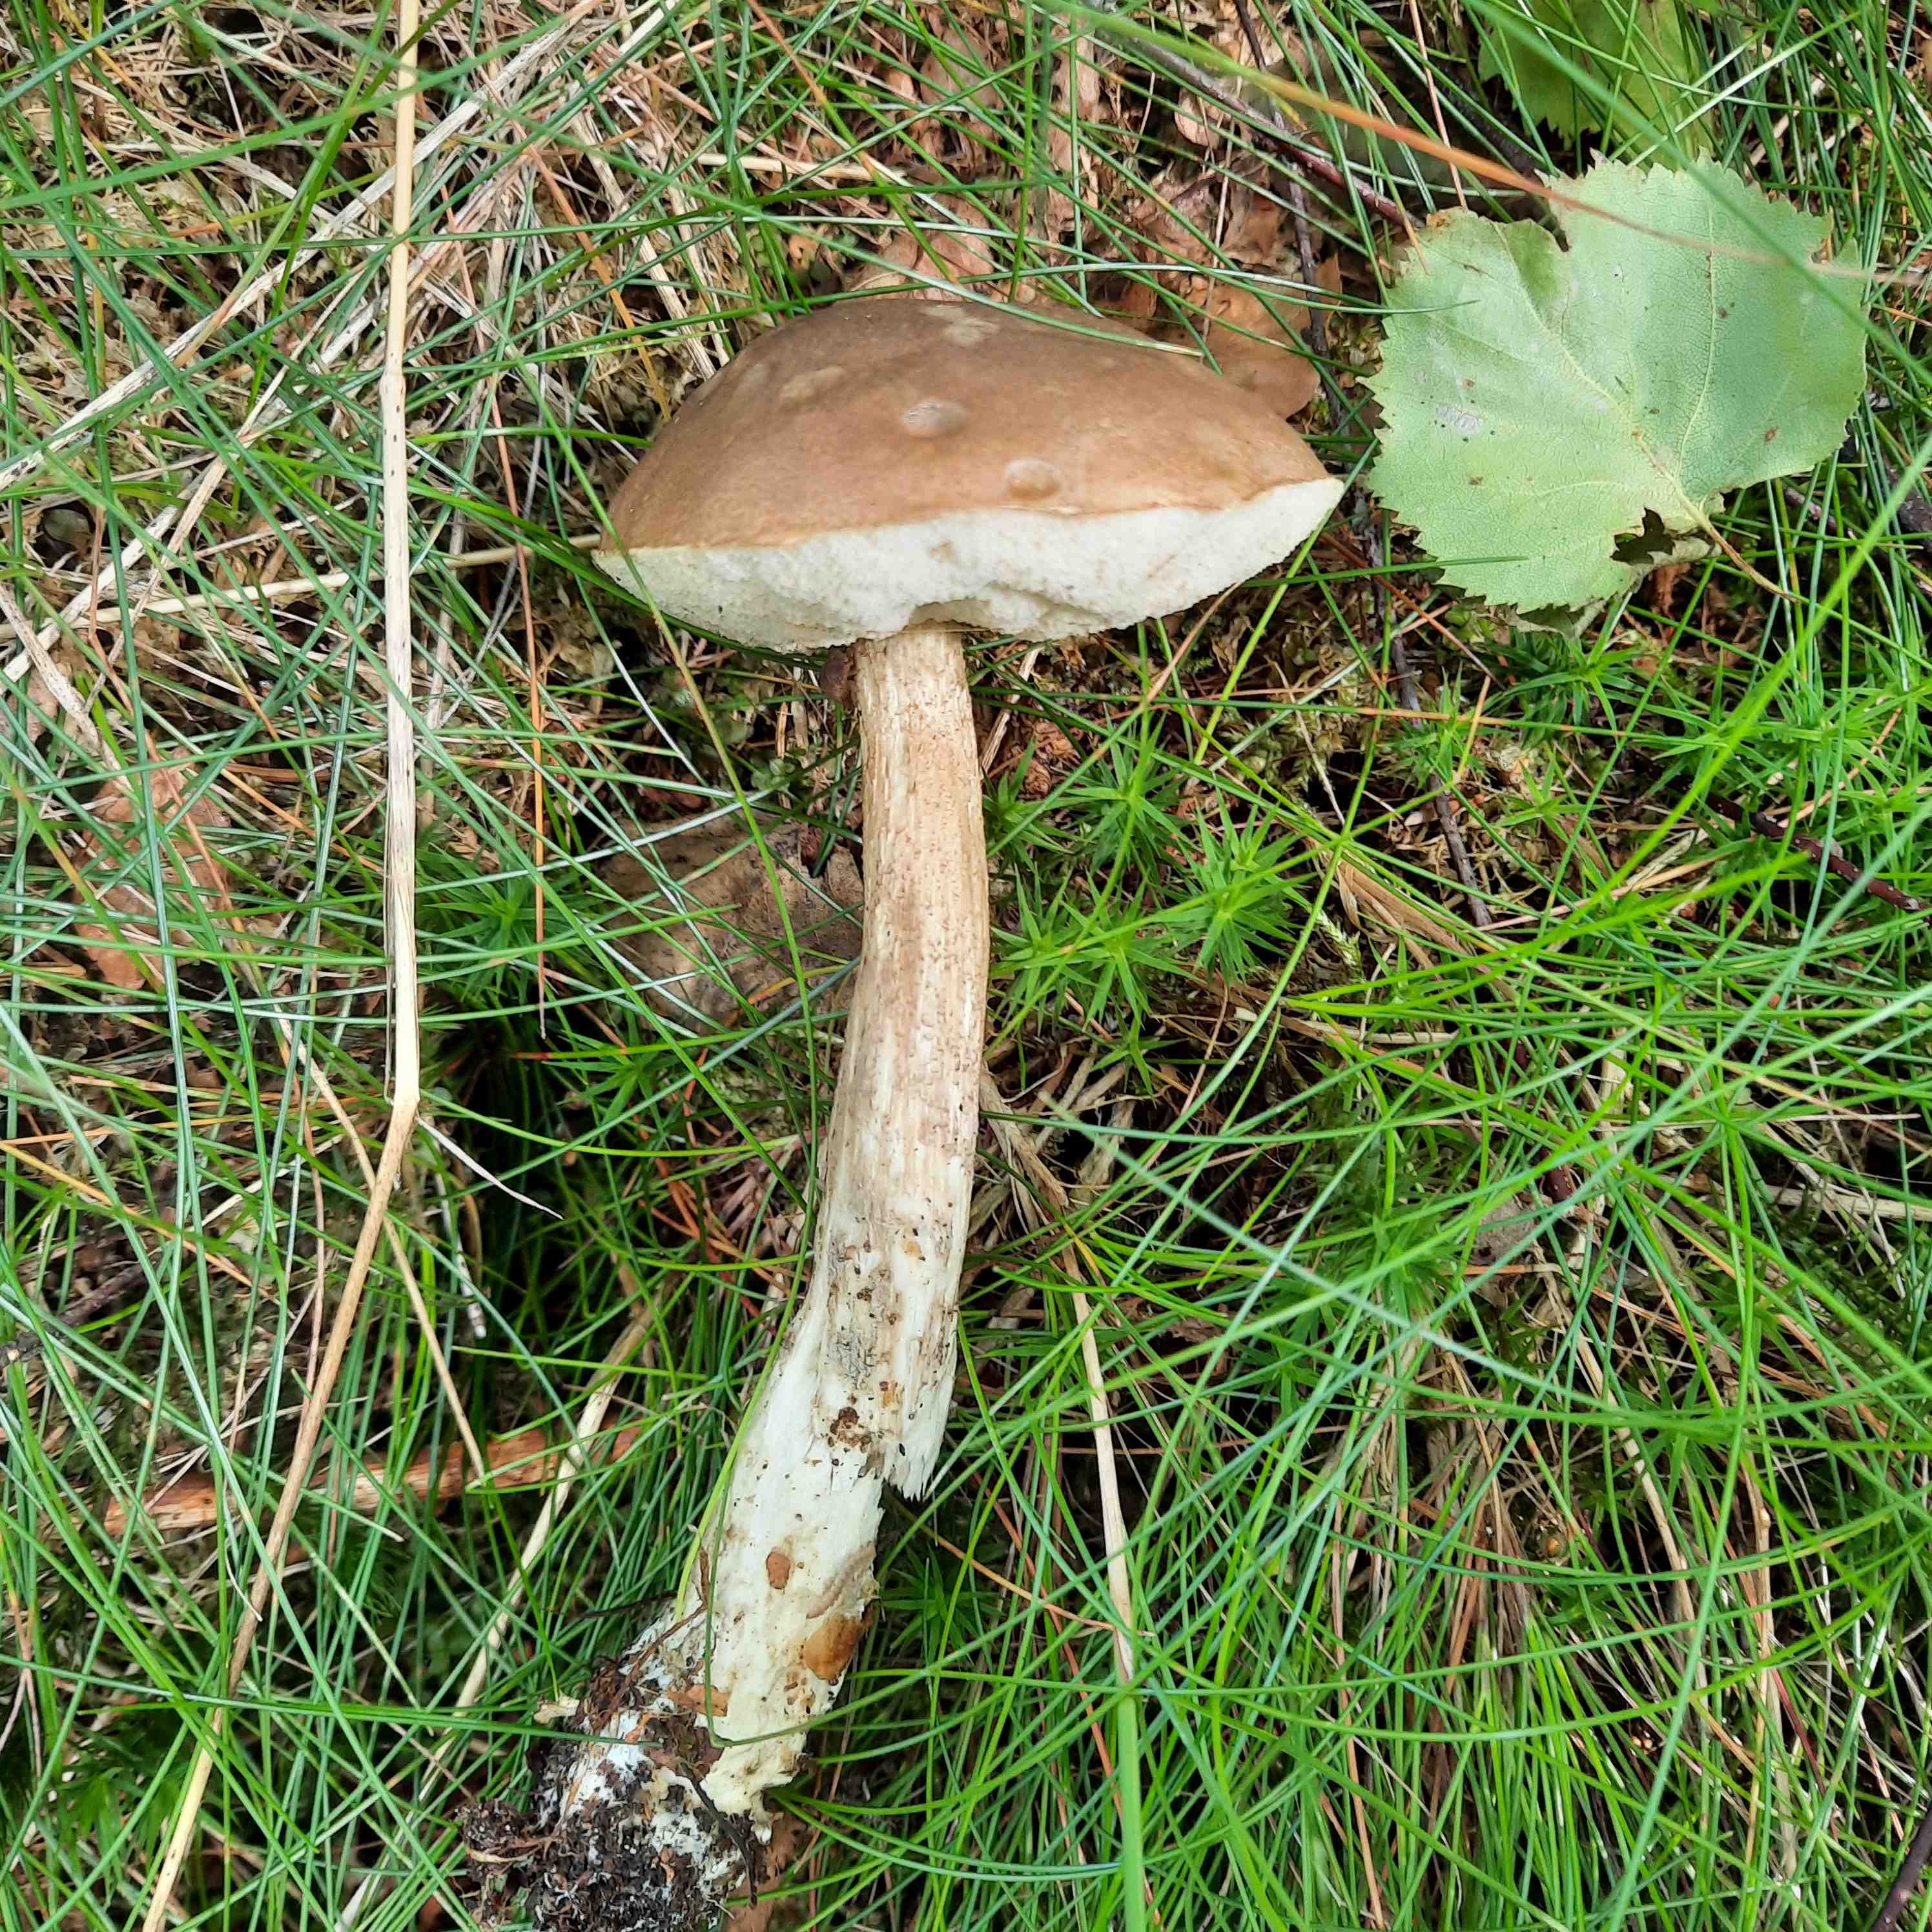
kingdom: Fungi
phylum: Basidiomycota
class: Agaricomycetes
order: Boletales
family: Boletaceae
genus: Leccinellum
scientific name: Leccinellum
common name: skælrørhat
